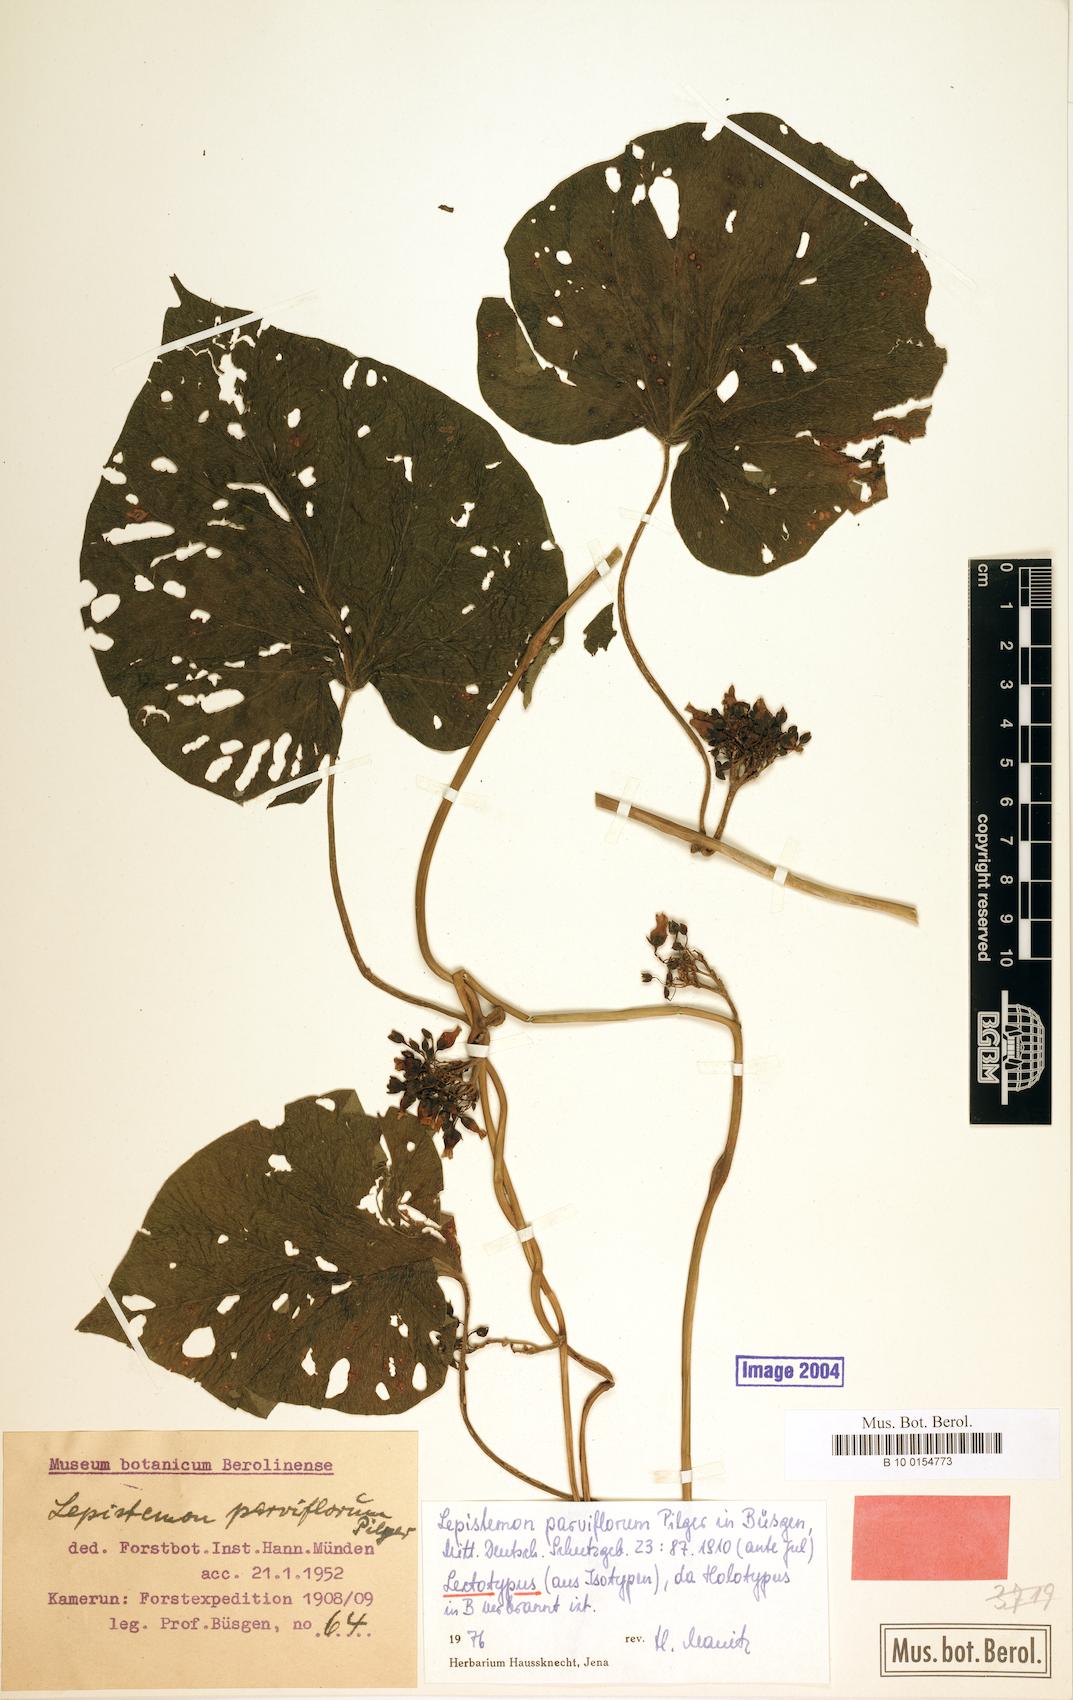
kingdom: Plantae
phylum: Tracheophyta
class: Magnoliopsida
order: Solanales
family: Convolvulaceae
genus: Lepistemon
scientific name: Lepistemon parviflorus
